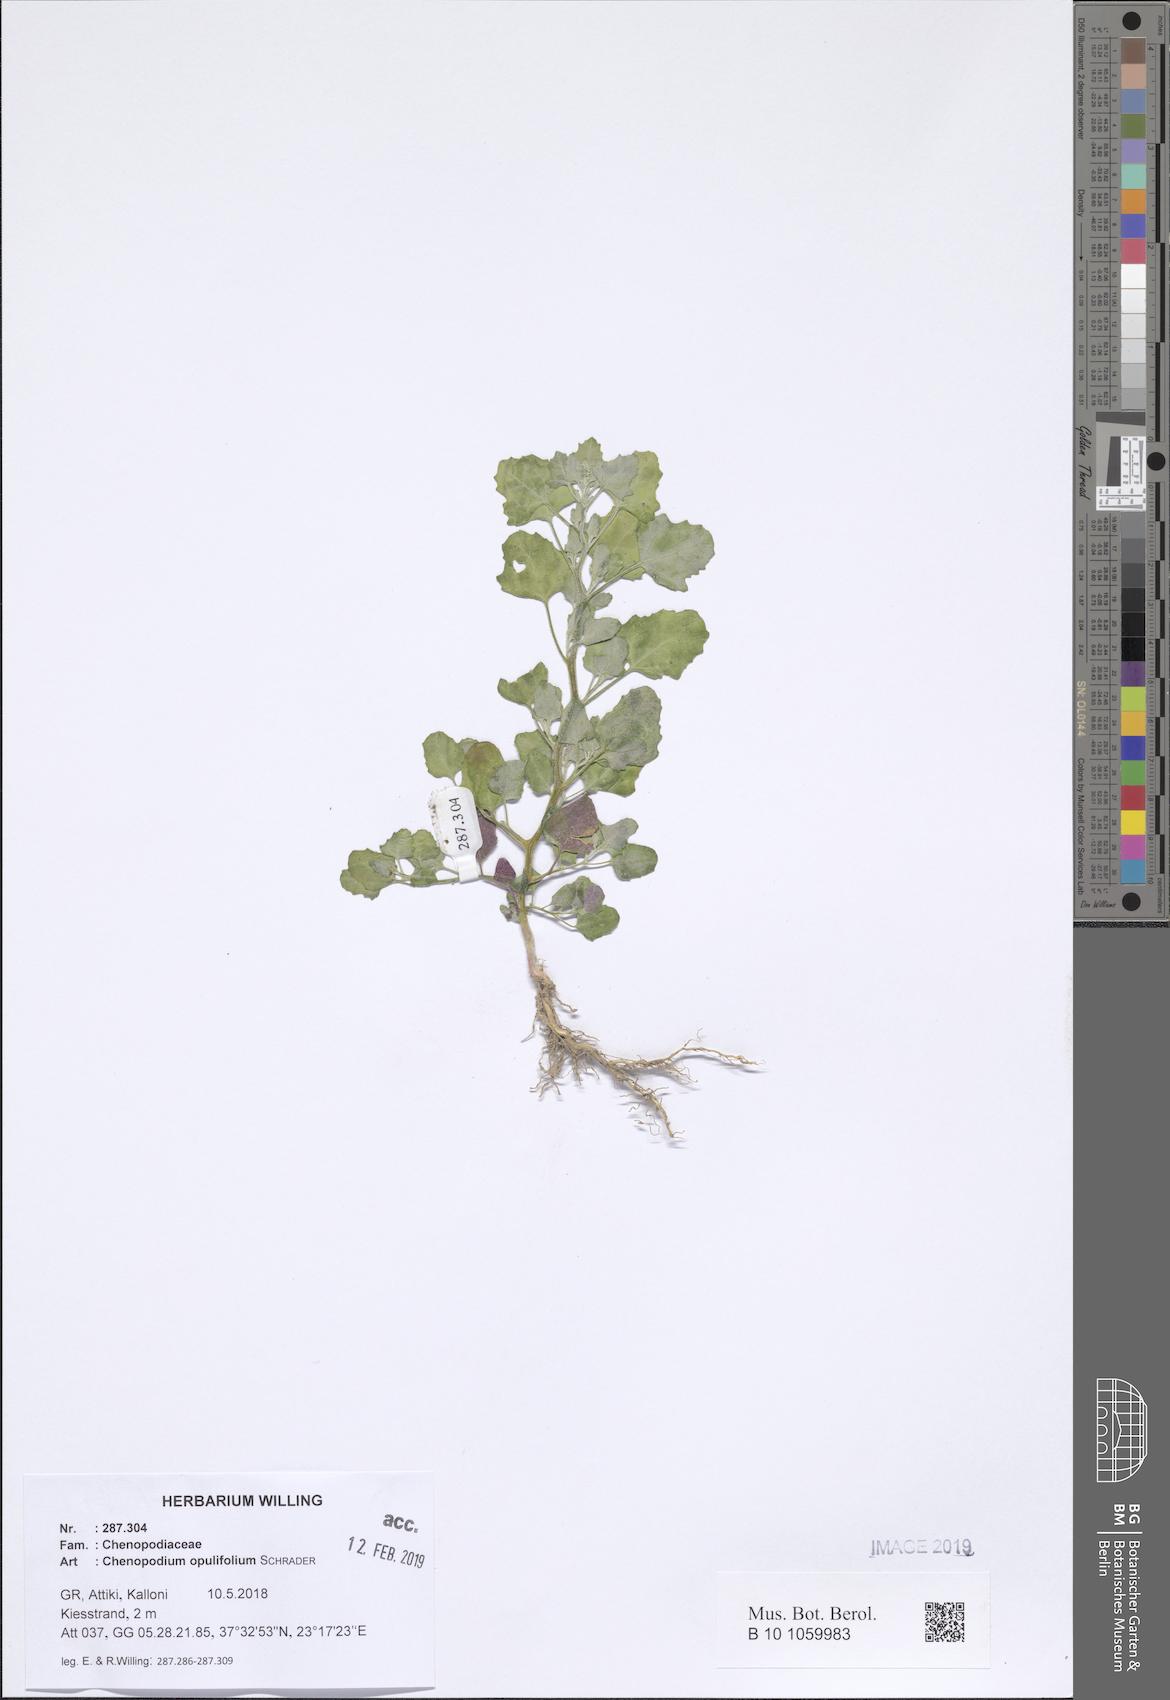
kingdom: Plantae
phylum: Tracheophyta
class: Magnoliopsida
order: Caryophyllales
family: Amaranthaceae
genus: Chenopodium
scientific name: Chenopodium opulifolium
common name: Grey goosefoot
